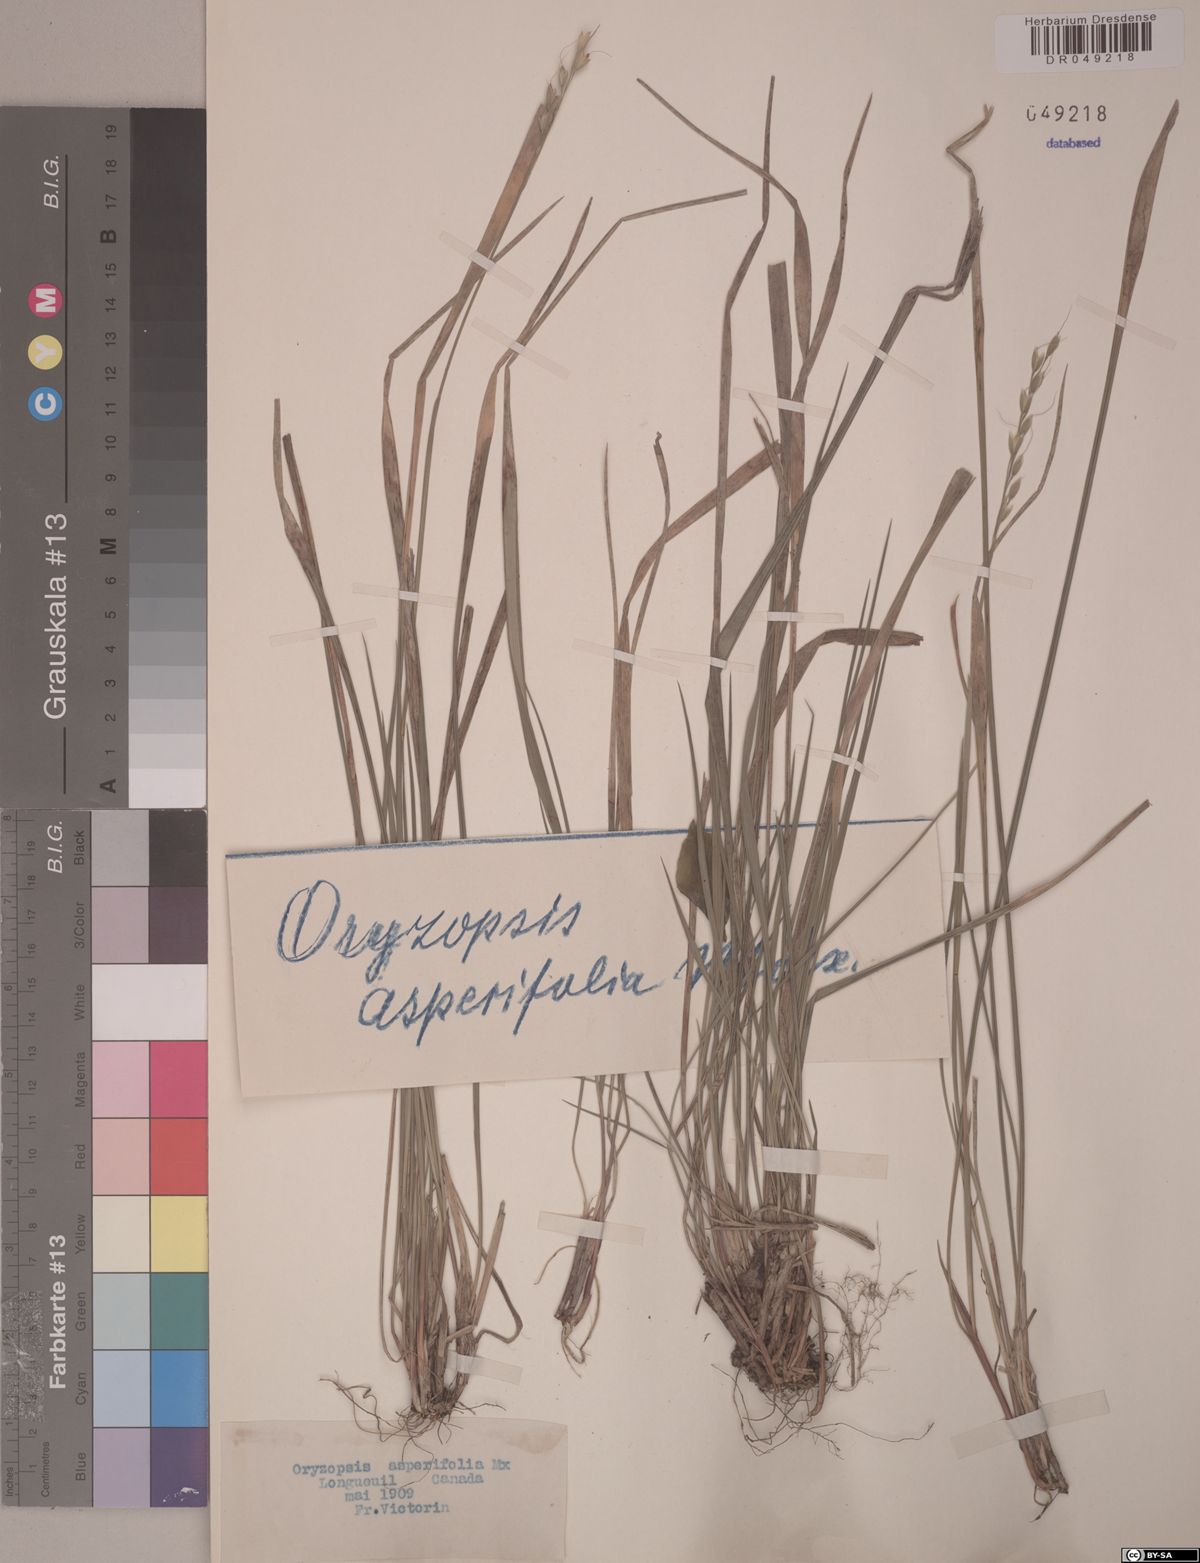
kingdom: Plantae
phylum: Tracheophyta
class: Liliopsida
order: Poales
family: Poaceae
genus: Oryzopsis
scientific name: Oryzopsis asperifolia
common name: Rough-leaved mountain rice
